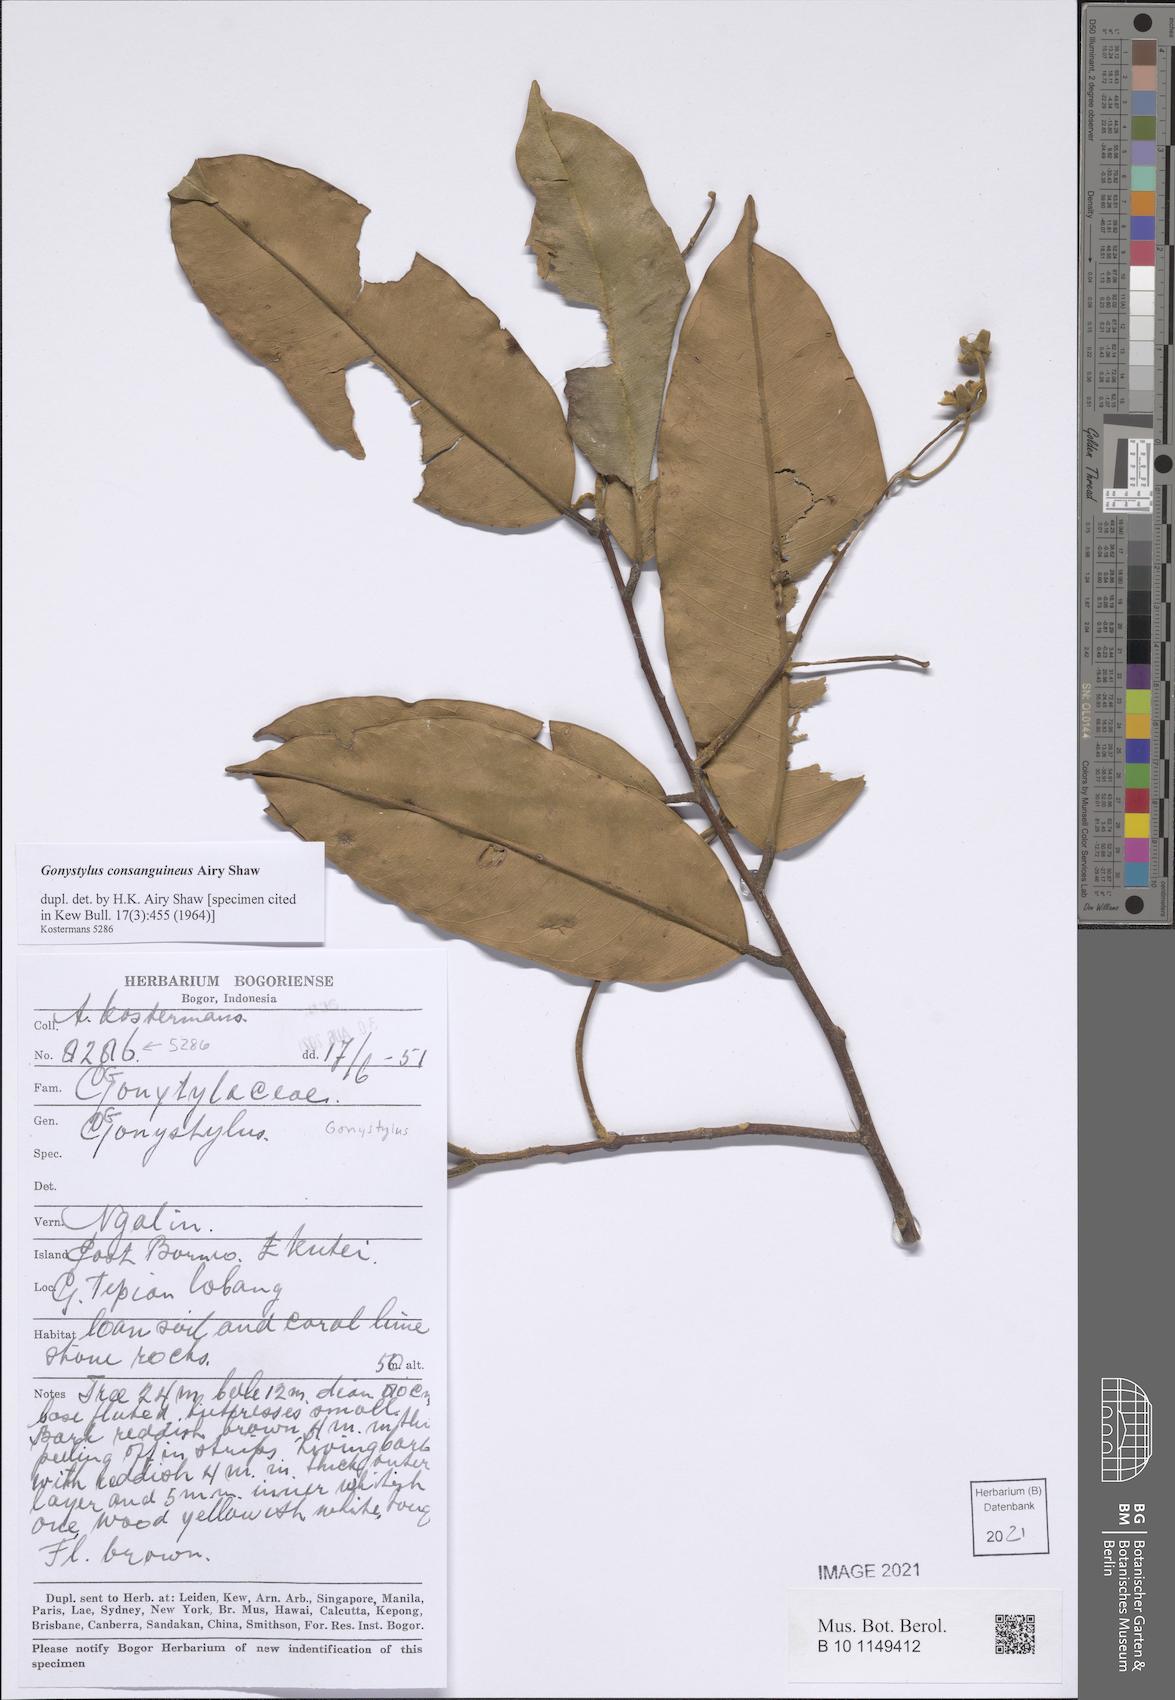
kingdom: Plantae
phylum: Tracheophyta
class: Magnoliopsida
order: Malvales
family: Thymelaeaceae
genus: Gonystylus
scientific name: Gonystylus consanguineus
